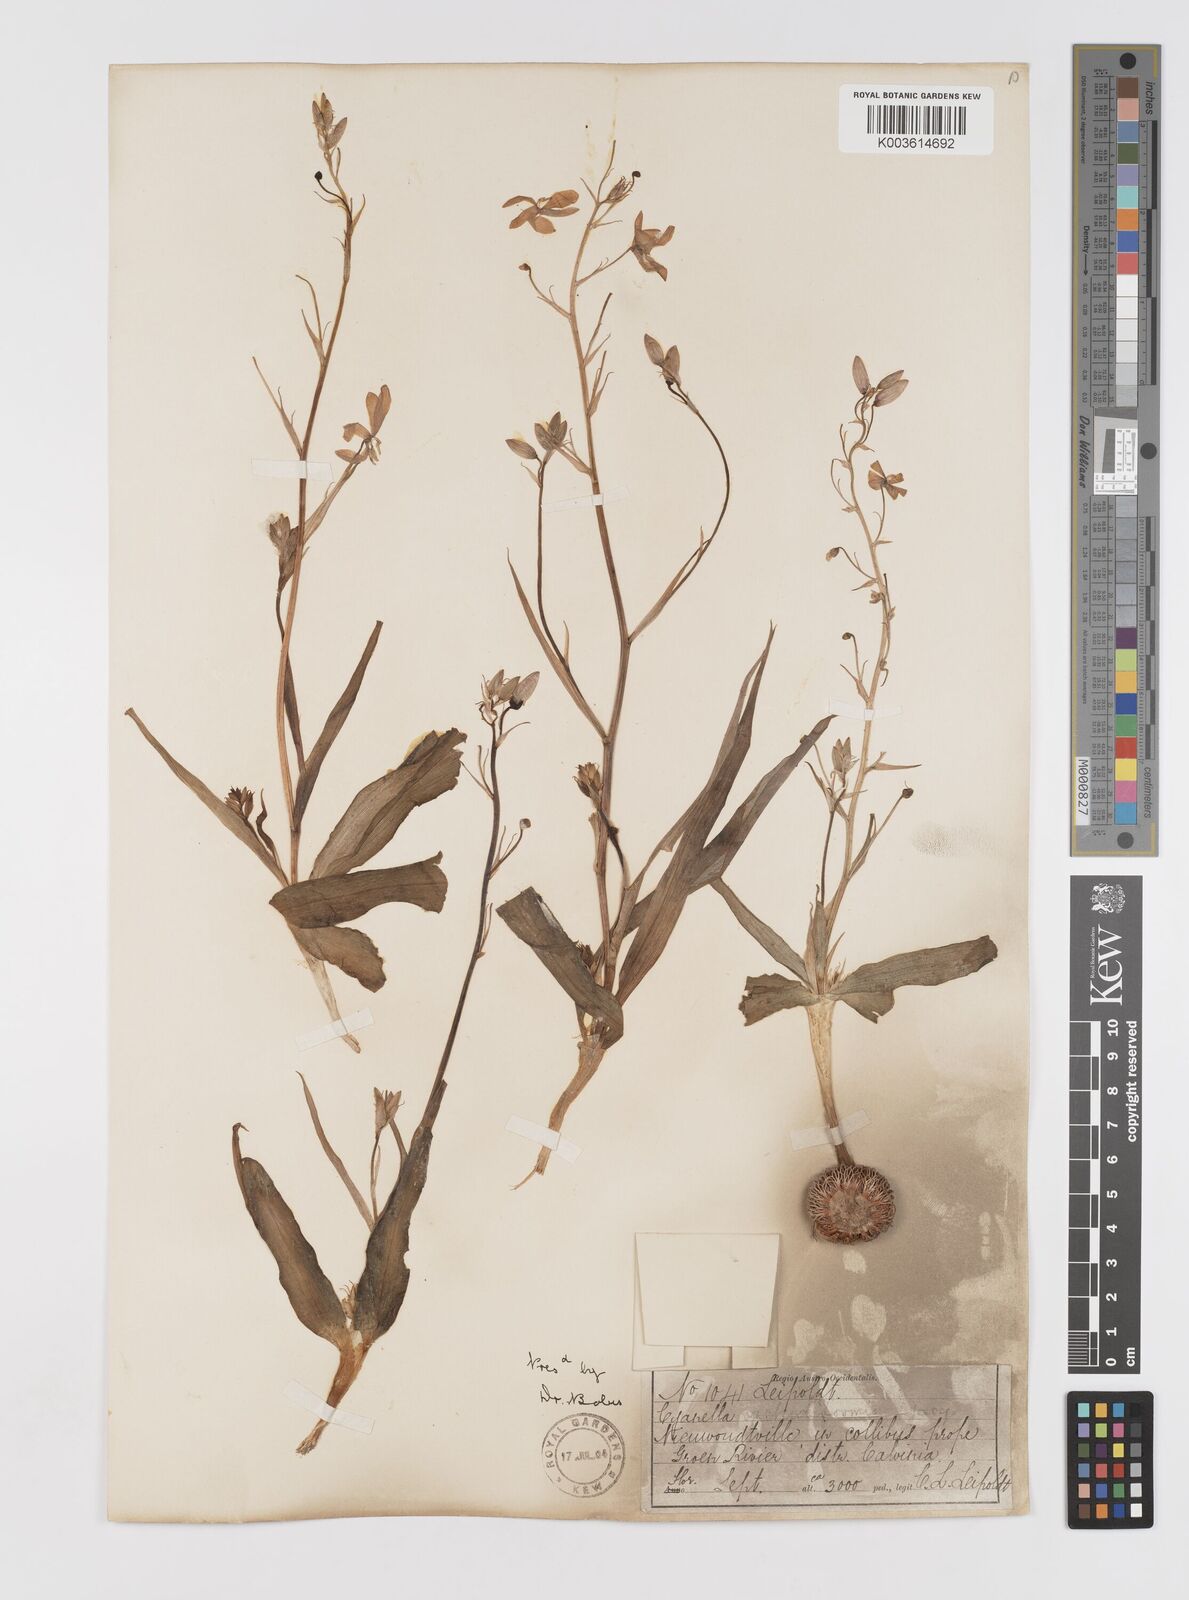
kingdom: Plantae
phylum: Tracheophyta
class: Liliopsida
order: Asparagales
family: Tecophilaeaceae
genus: Cyanella
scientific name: Cyanella orchidiformis
